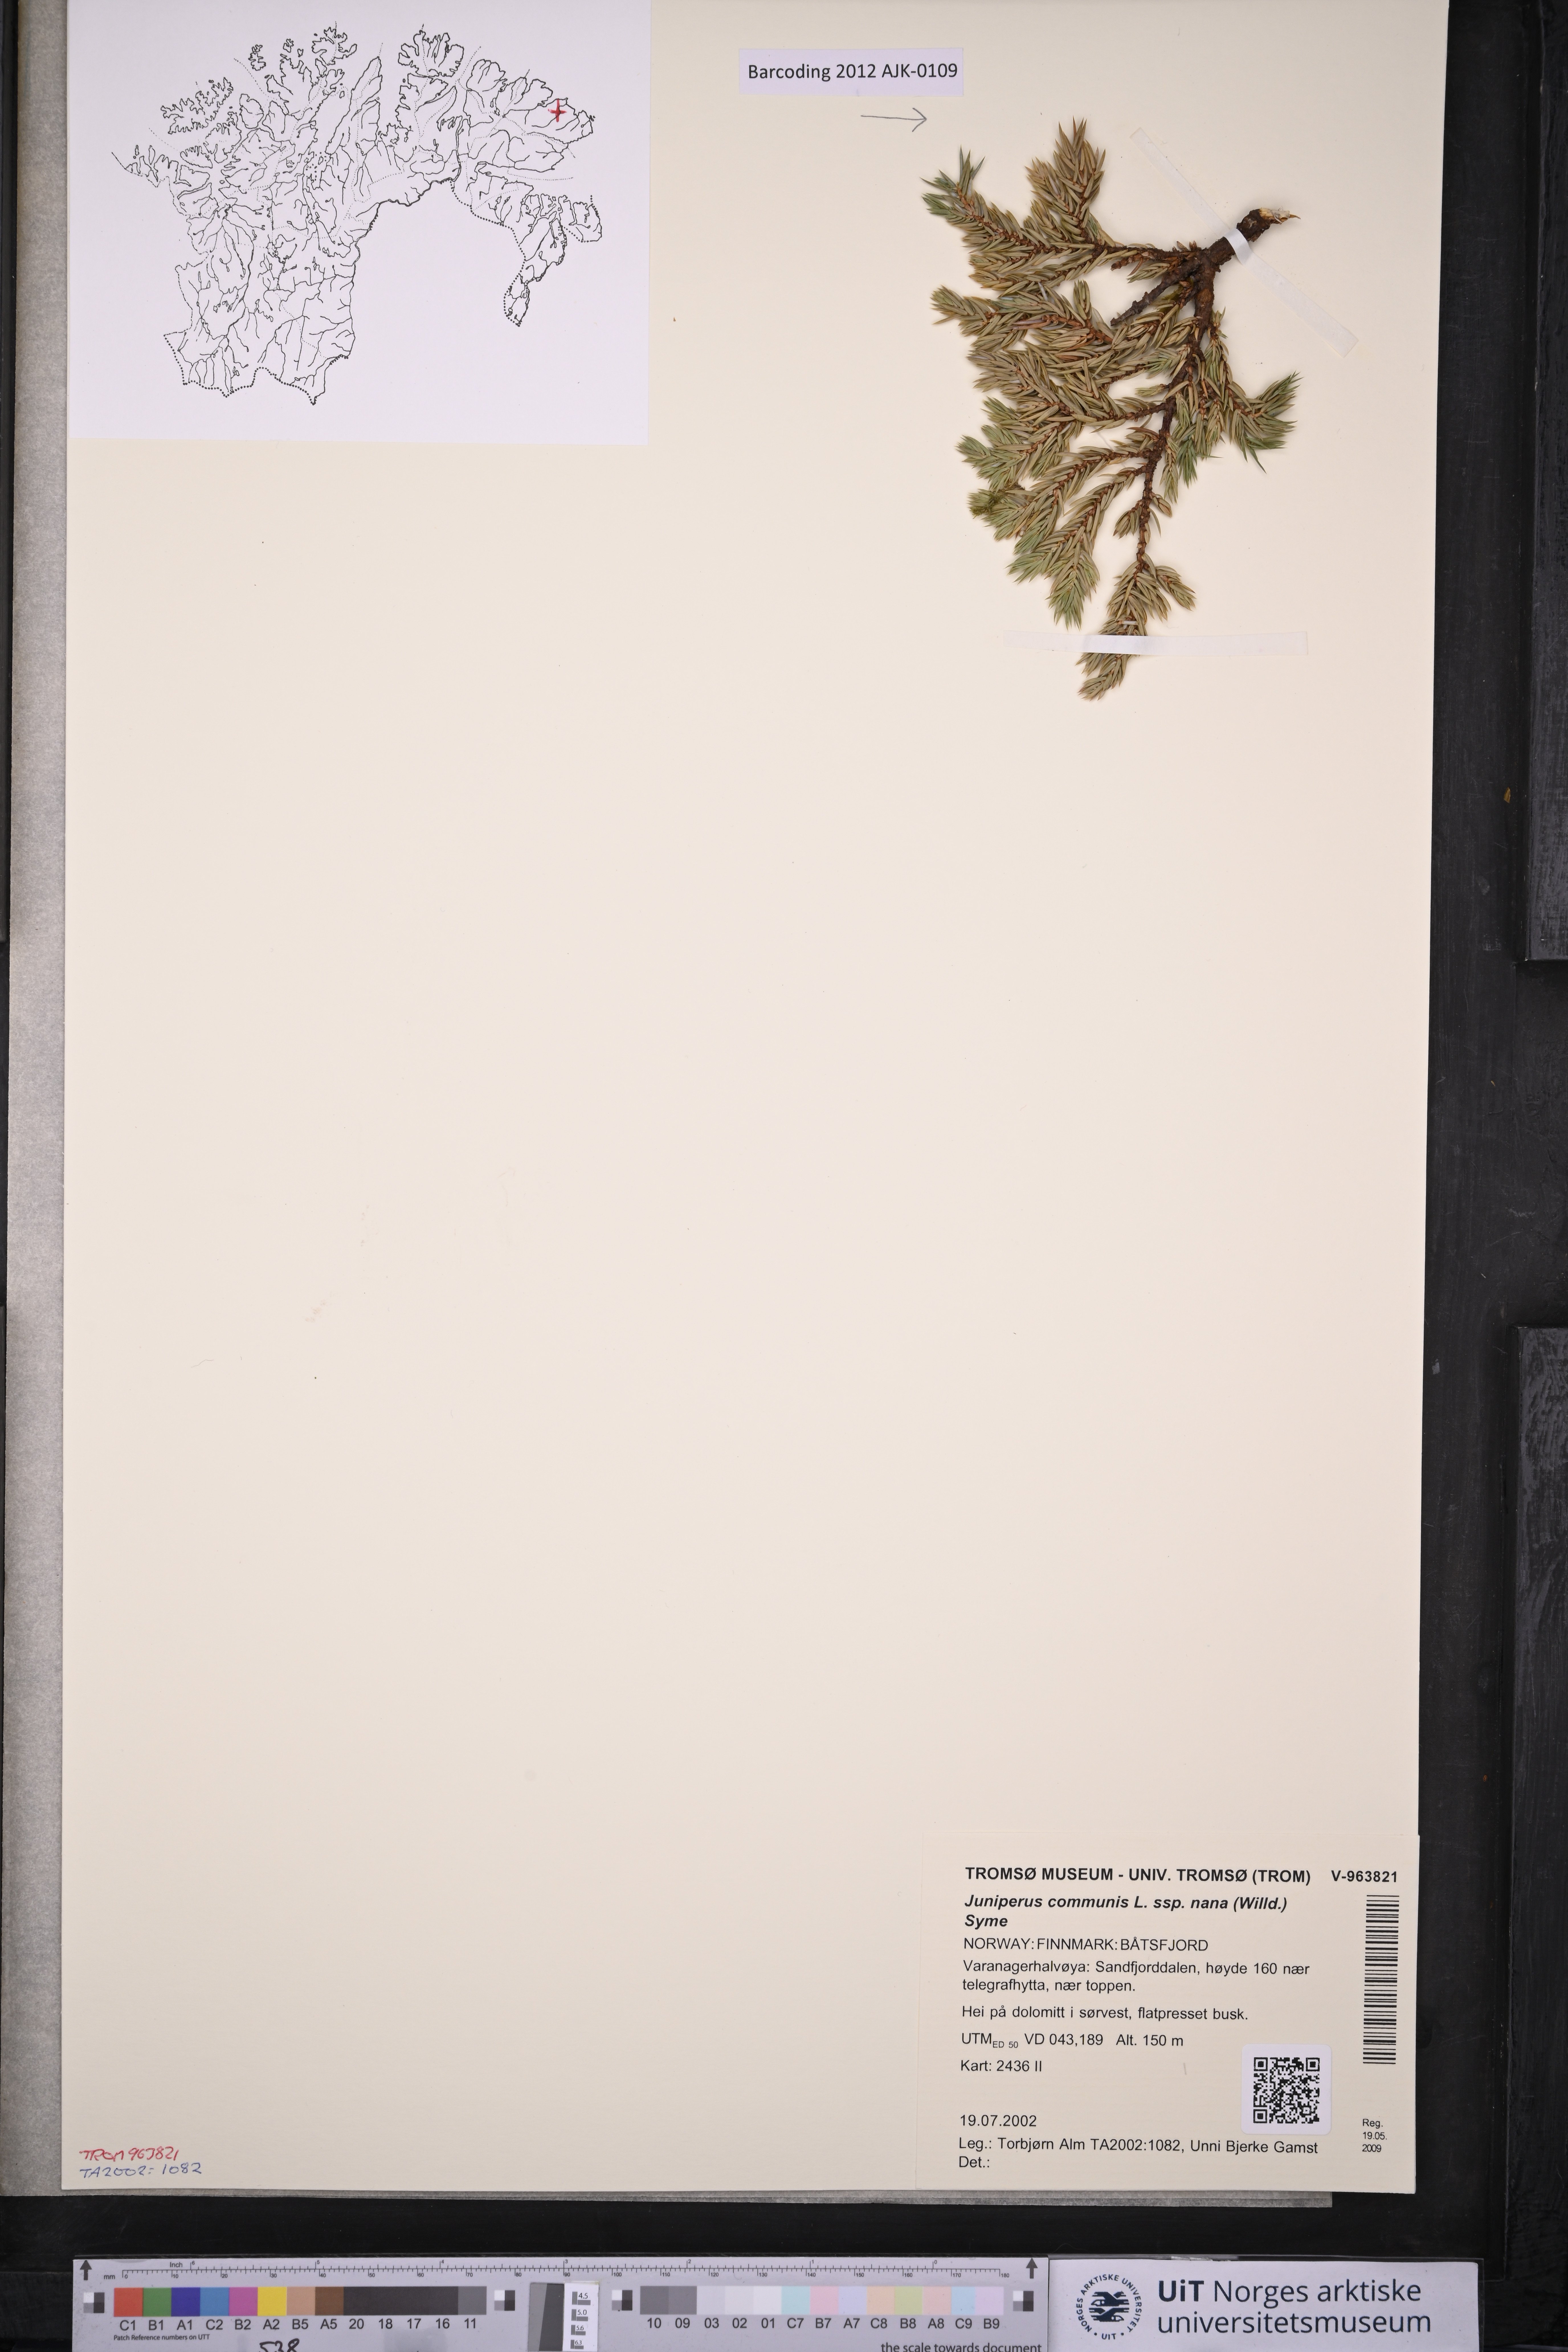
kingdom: Plantae
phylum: Tracheophyta
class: Pinopsida
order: Pinales
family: Cupressaceae
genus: Juniperus
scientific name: Juniperus communis
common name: Common juniper
